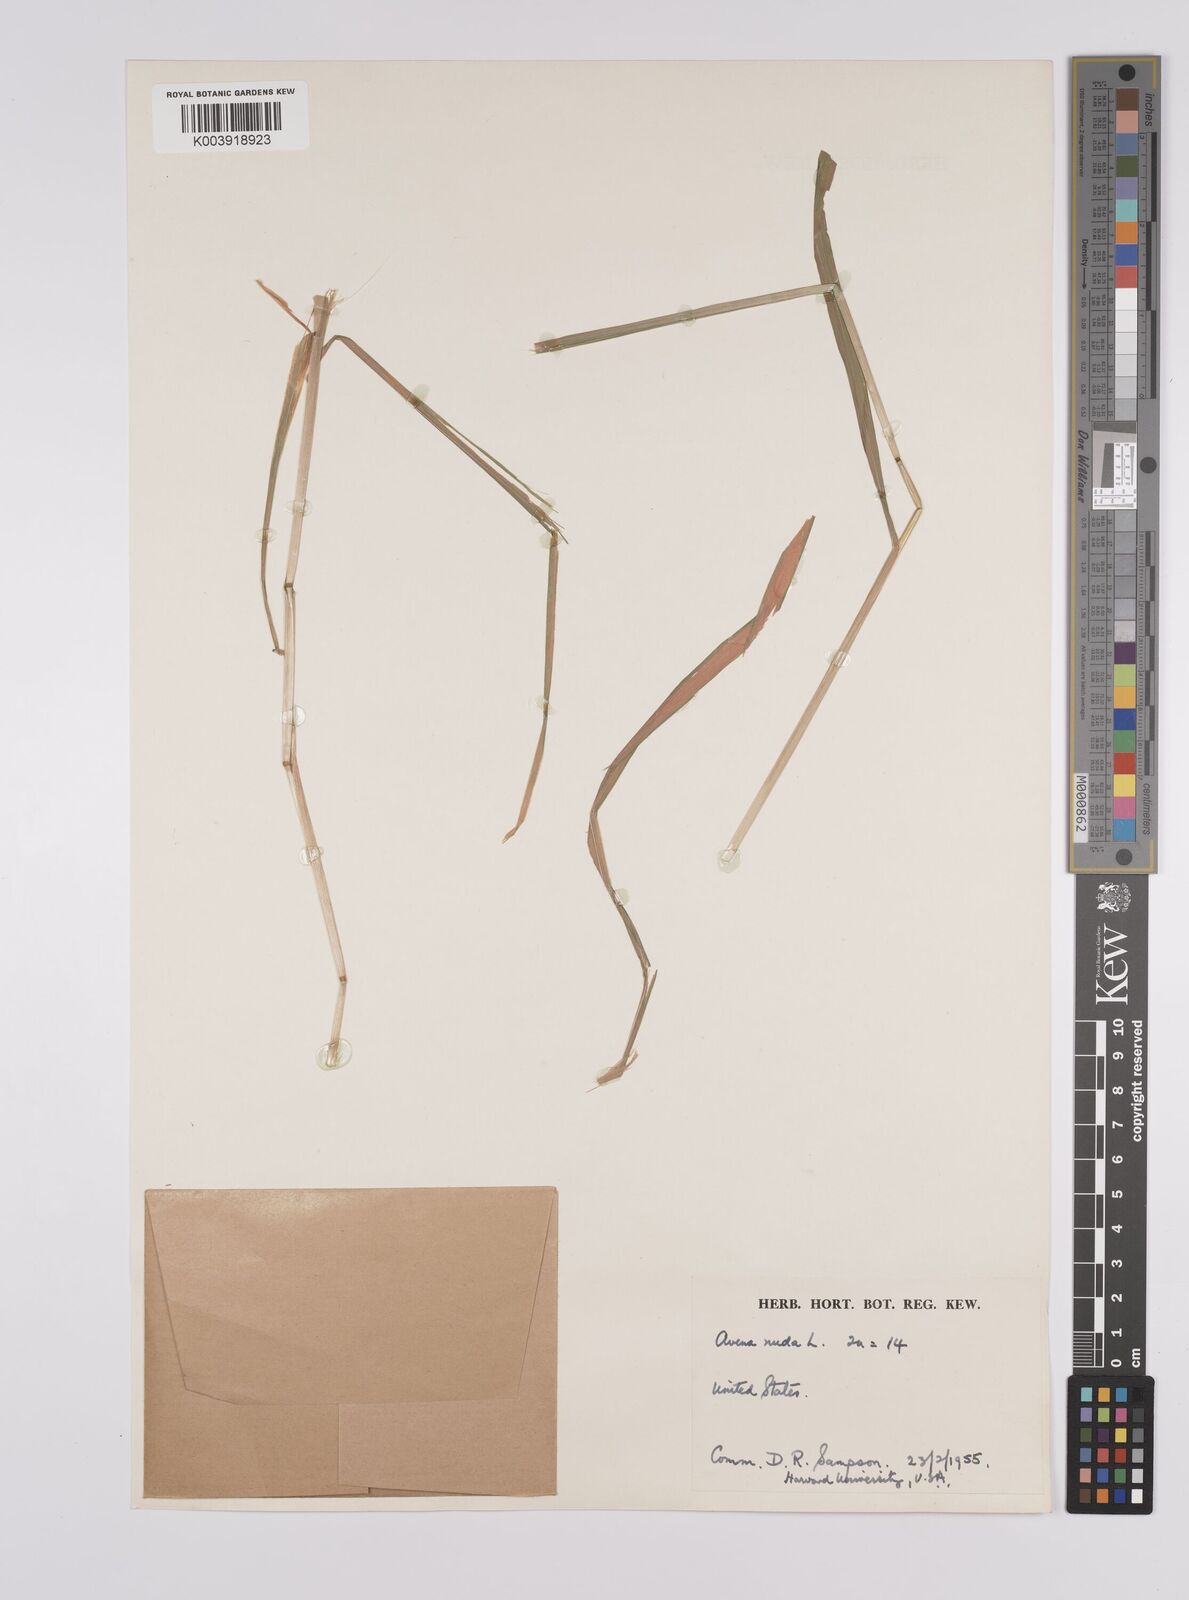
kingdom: Plantae
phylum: Tracheophyta
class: Liliopsida
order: Poales
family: Poaceae
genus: Avena
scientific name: Avena nuda
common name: Naked oat
